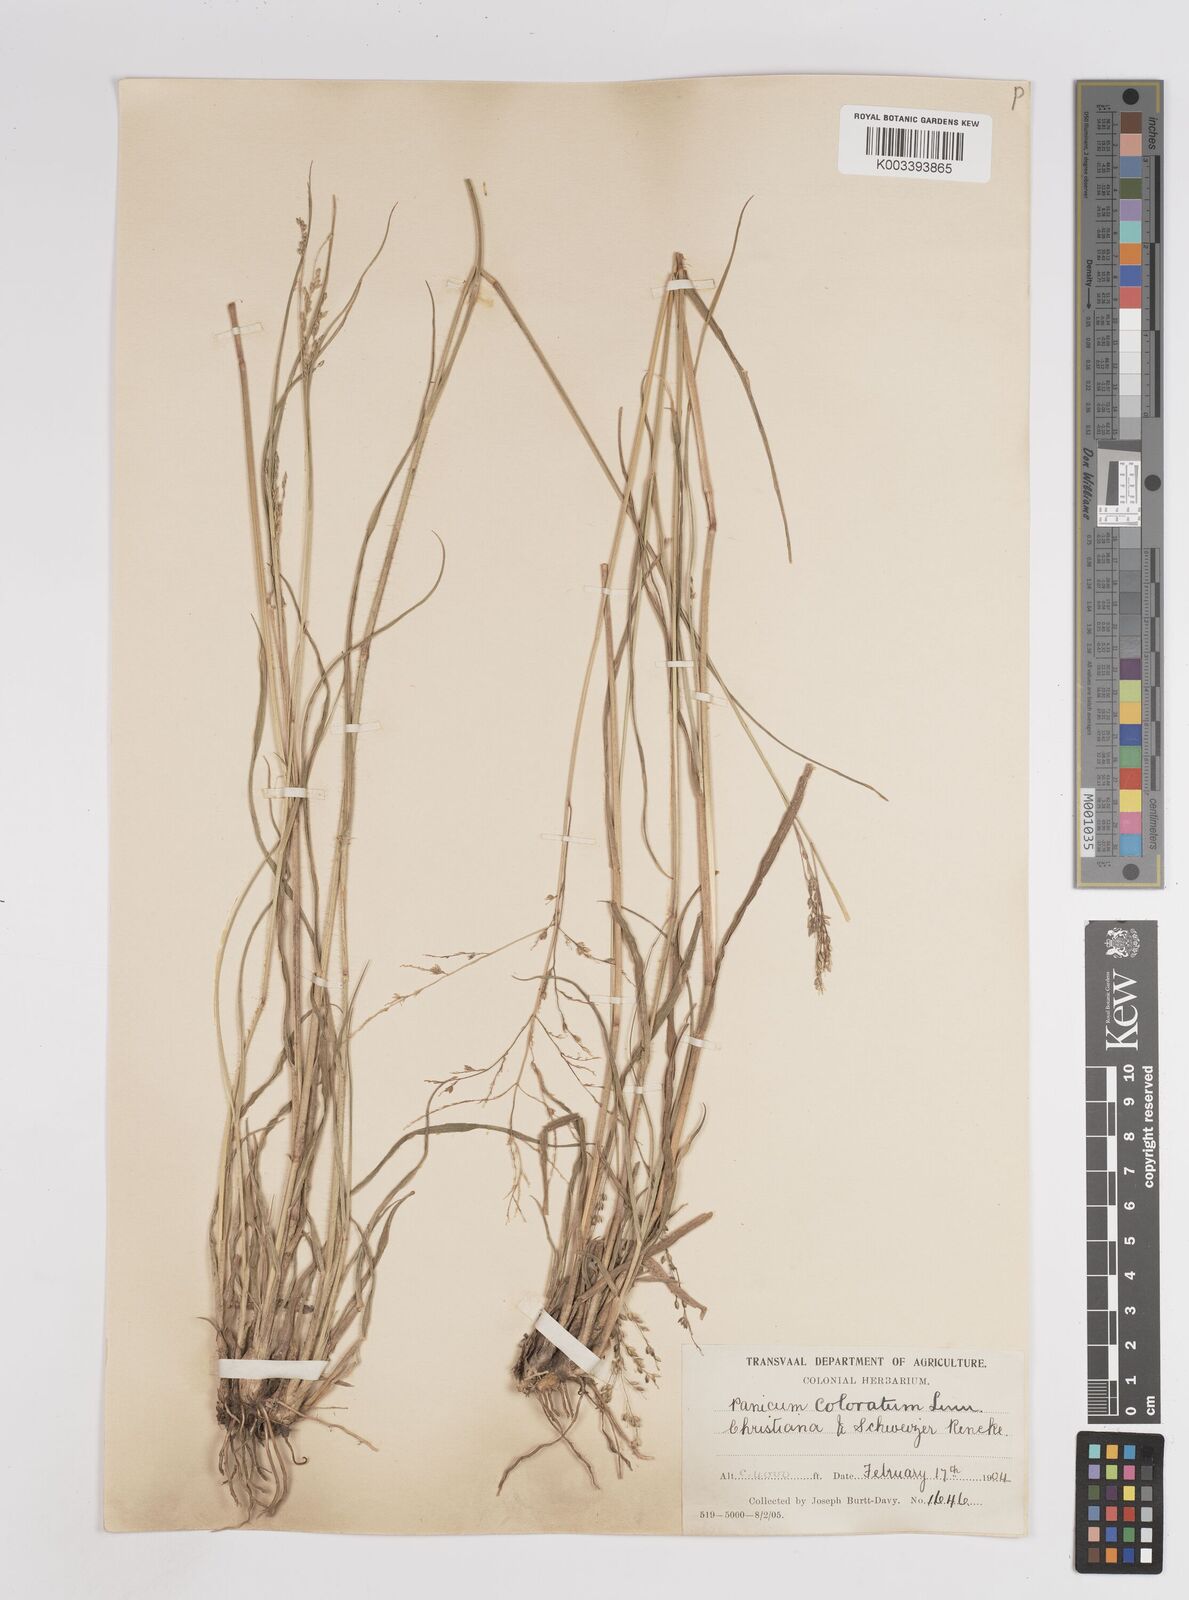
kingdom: Plantae
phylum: Tracheophyta
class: Liliopsida
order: Poales
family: Poaceae
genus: Panicum
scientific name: Panicum stapfianum
